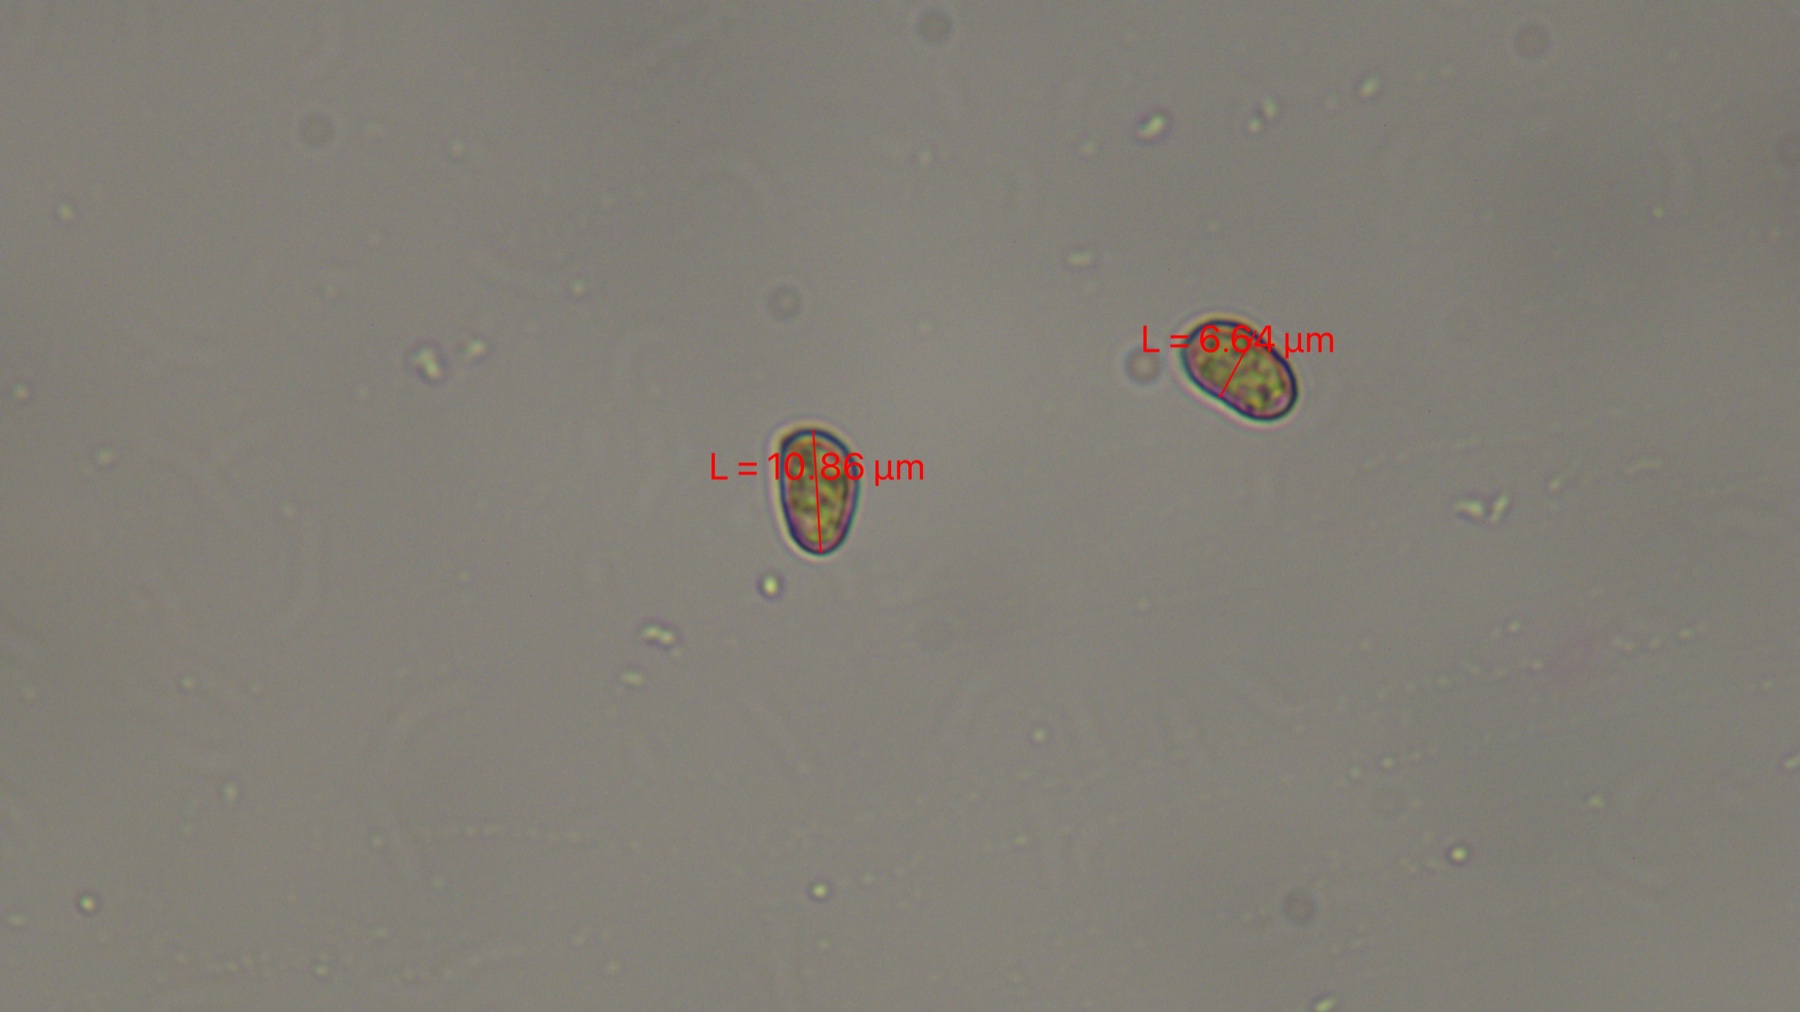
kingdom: Fungi
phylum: Basidiomycota
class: Agaricomycetes
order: Agaricales
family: Cortinariaceae
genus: Cortinarius
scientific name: Cortinarius decipientoides
